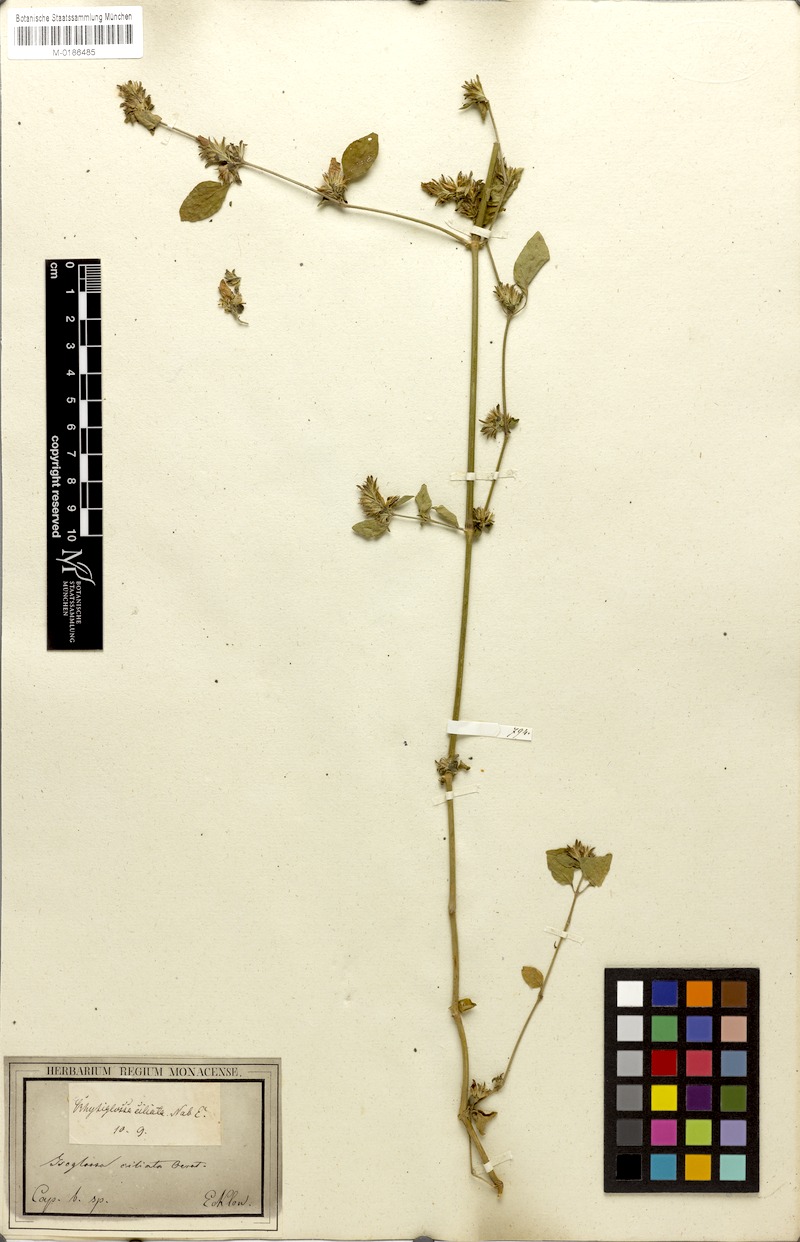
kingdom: Plantae
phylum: Tracheophyta
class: Magnoliopsida
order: Lamiales
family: Acanthaceae
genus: Isoglossa
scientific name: Isoglossa ciliata
